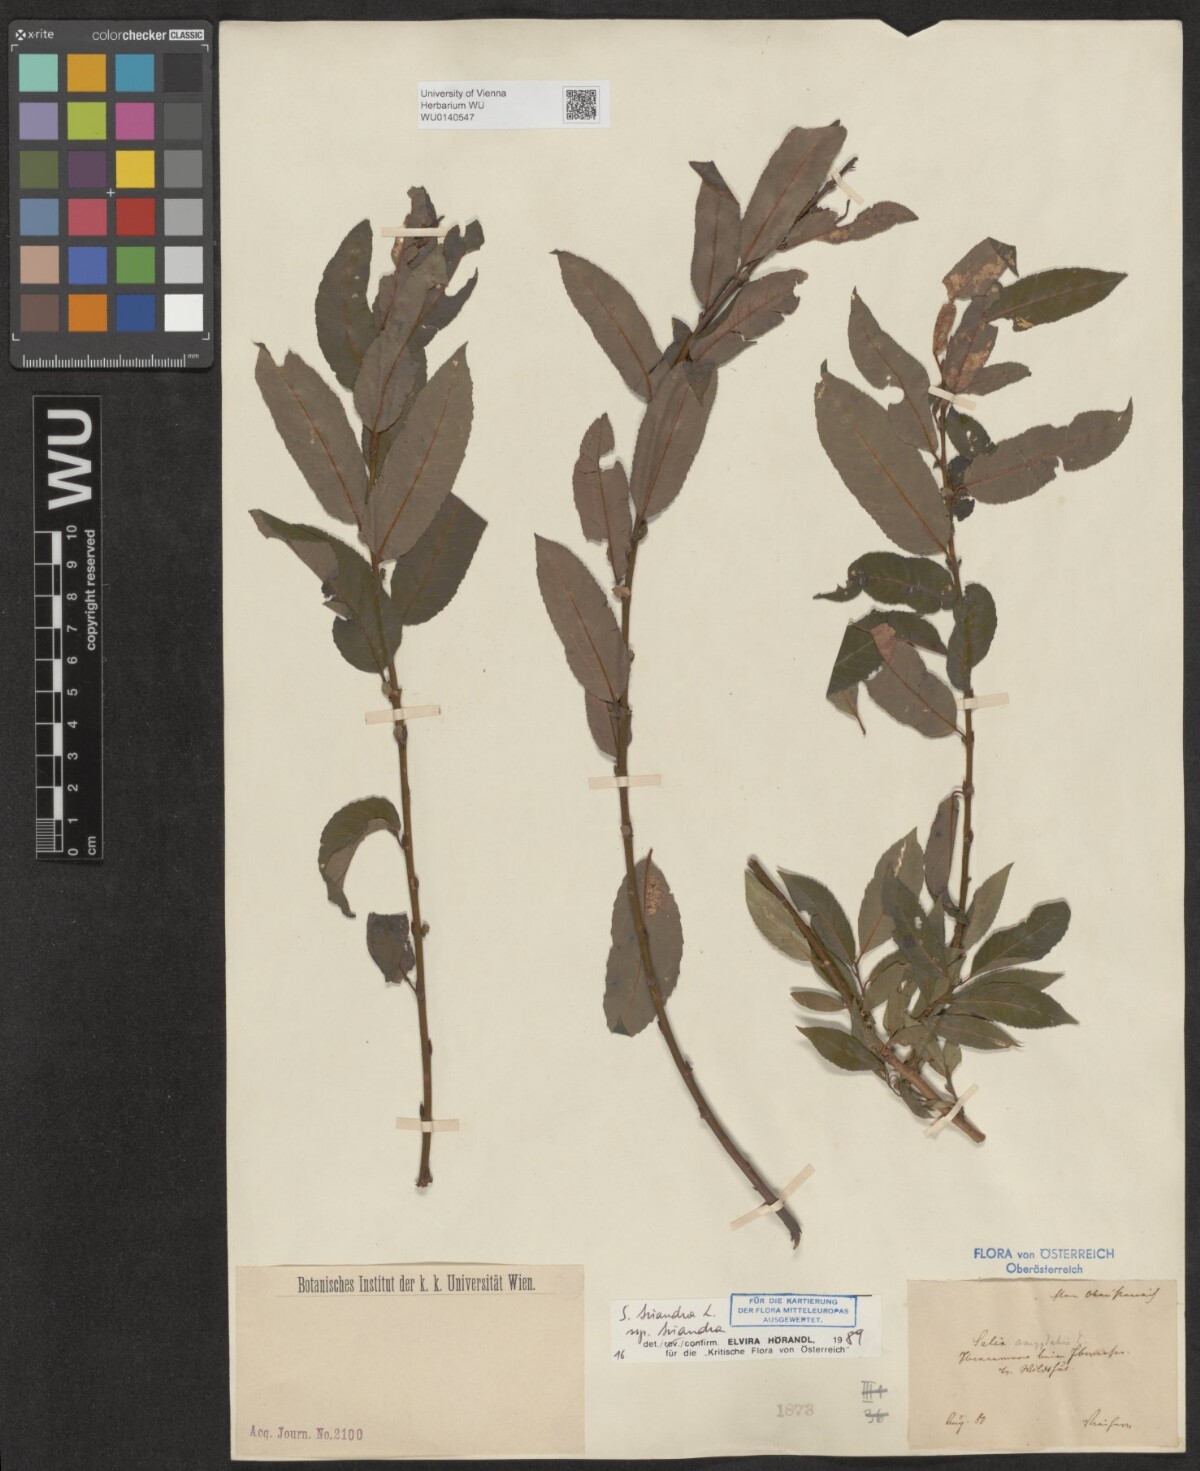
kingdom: Plantae
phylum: Tracheophyta
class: Magnoliopsida
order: Malpighiales
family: Salicaceae
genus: Salix
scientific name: Salix triandra
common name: Almond willow
